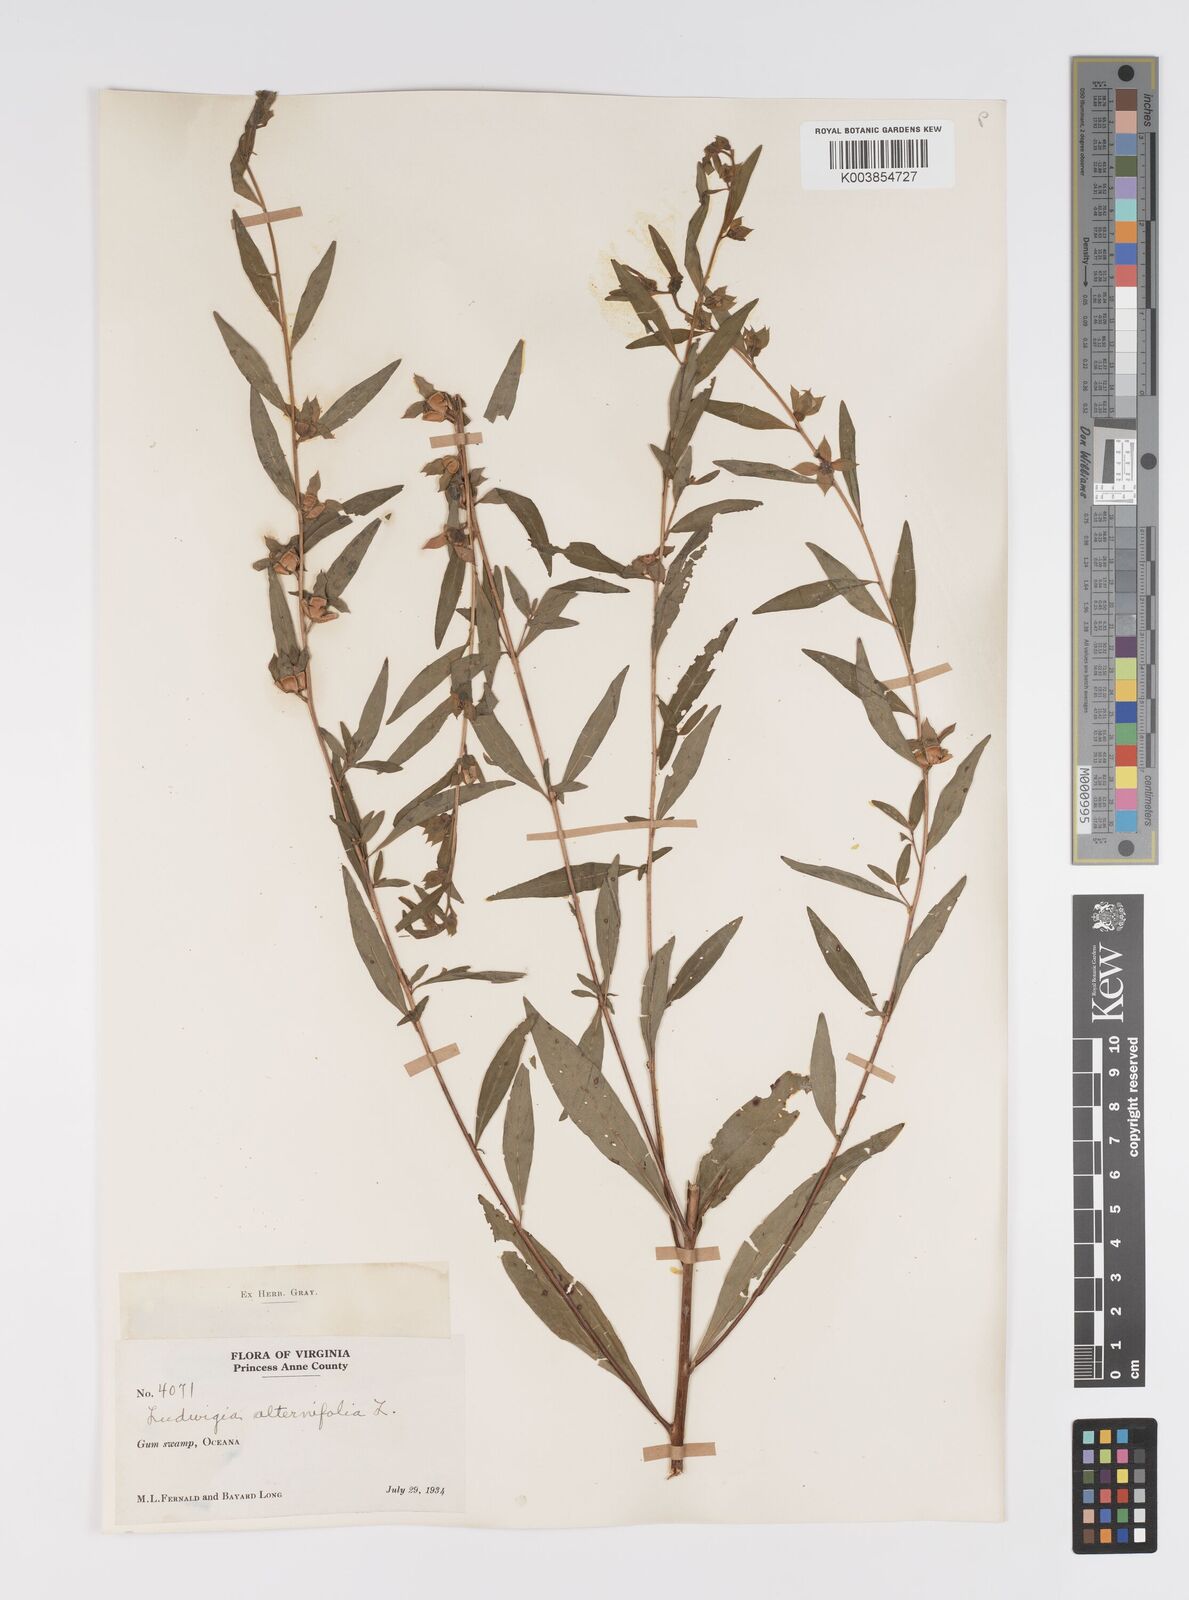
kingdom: Plantae
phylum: Tracheophyta
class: Magnoliopsida
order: Myrtales
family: Onagraceae
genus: Ludwigia
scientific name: Ludwigia alternifolia
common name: Rattlebox
